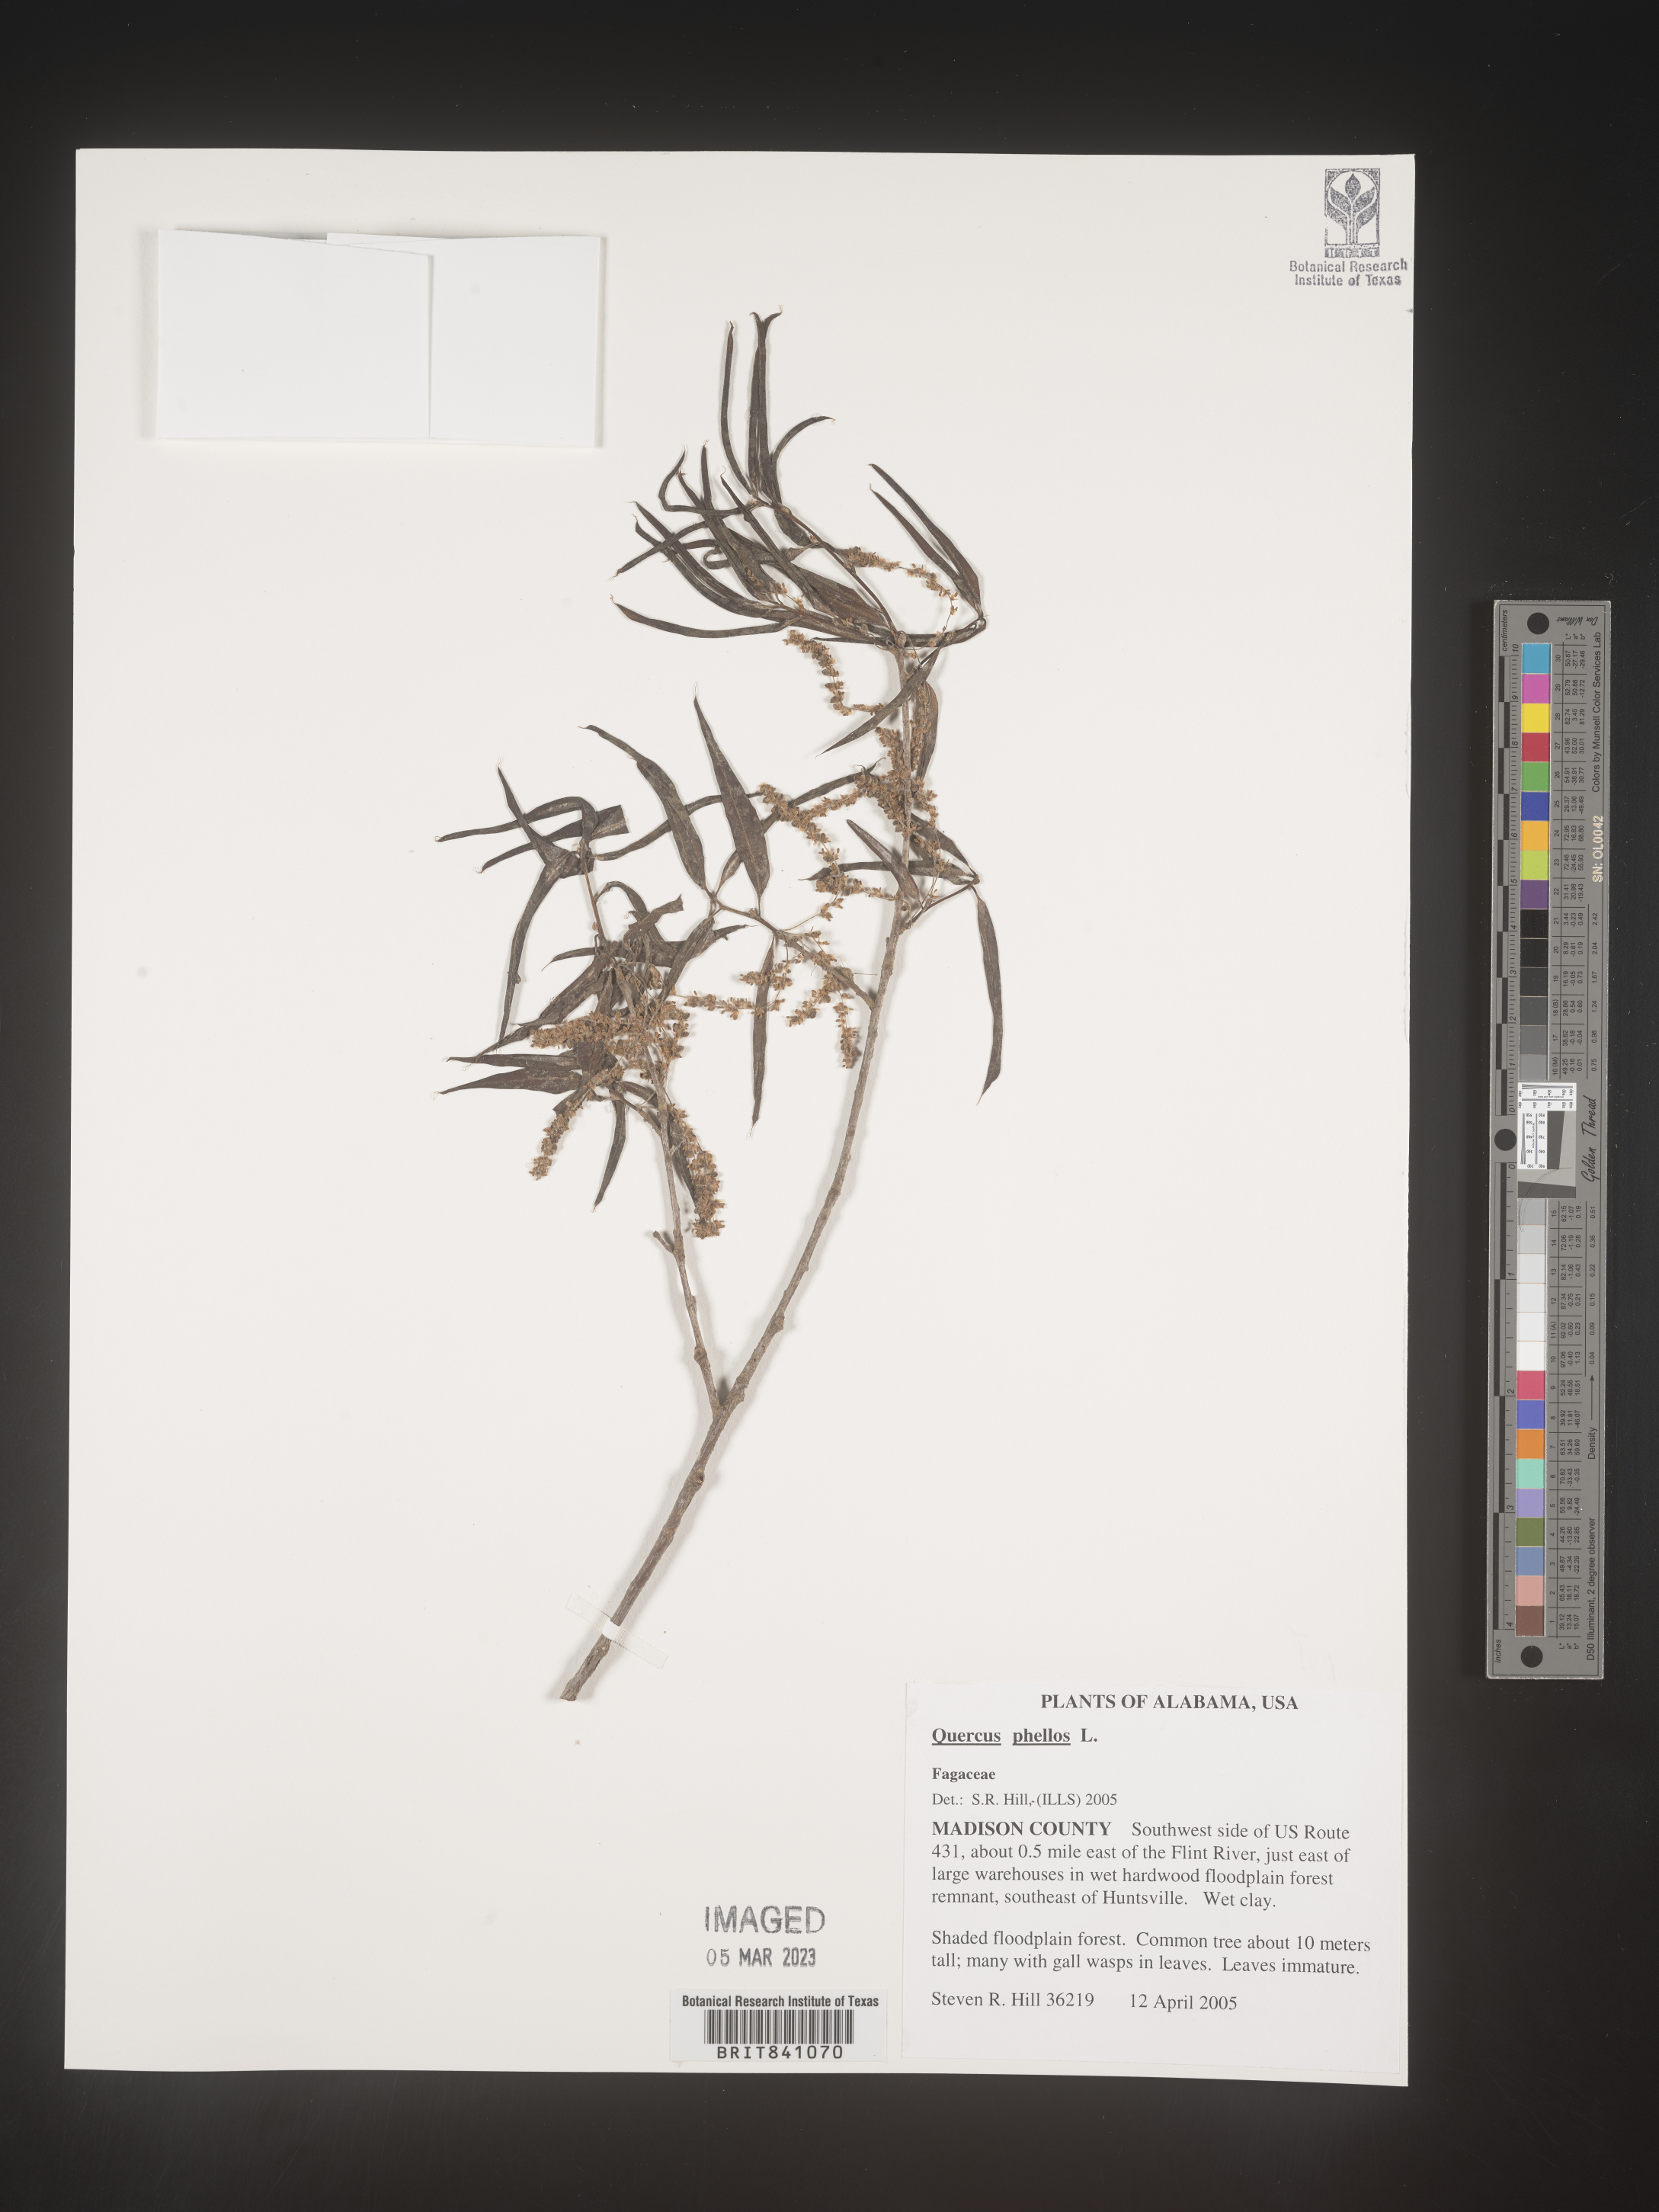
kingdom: Plantae
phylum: Tracheophyta
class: Magnoliopsida
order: Fagales
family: Fagaceae
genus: Quercus
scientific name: Quercus phellos
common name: Willow oak
